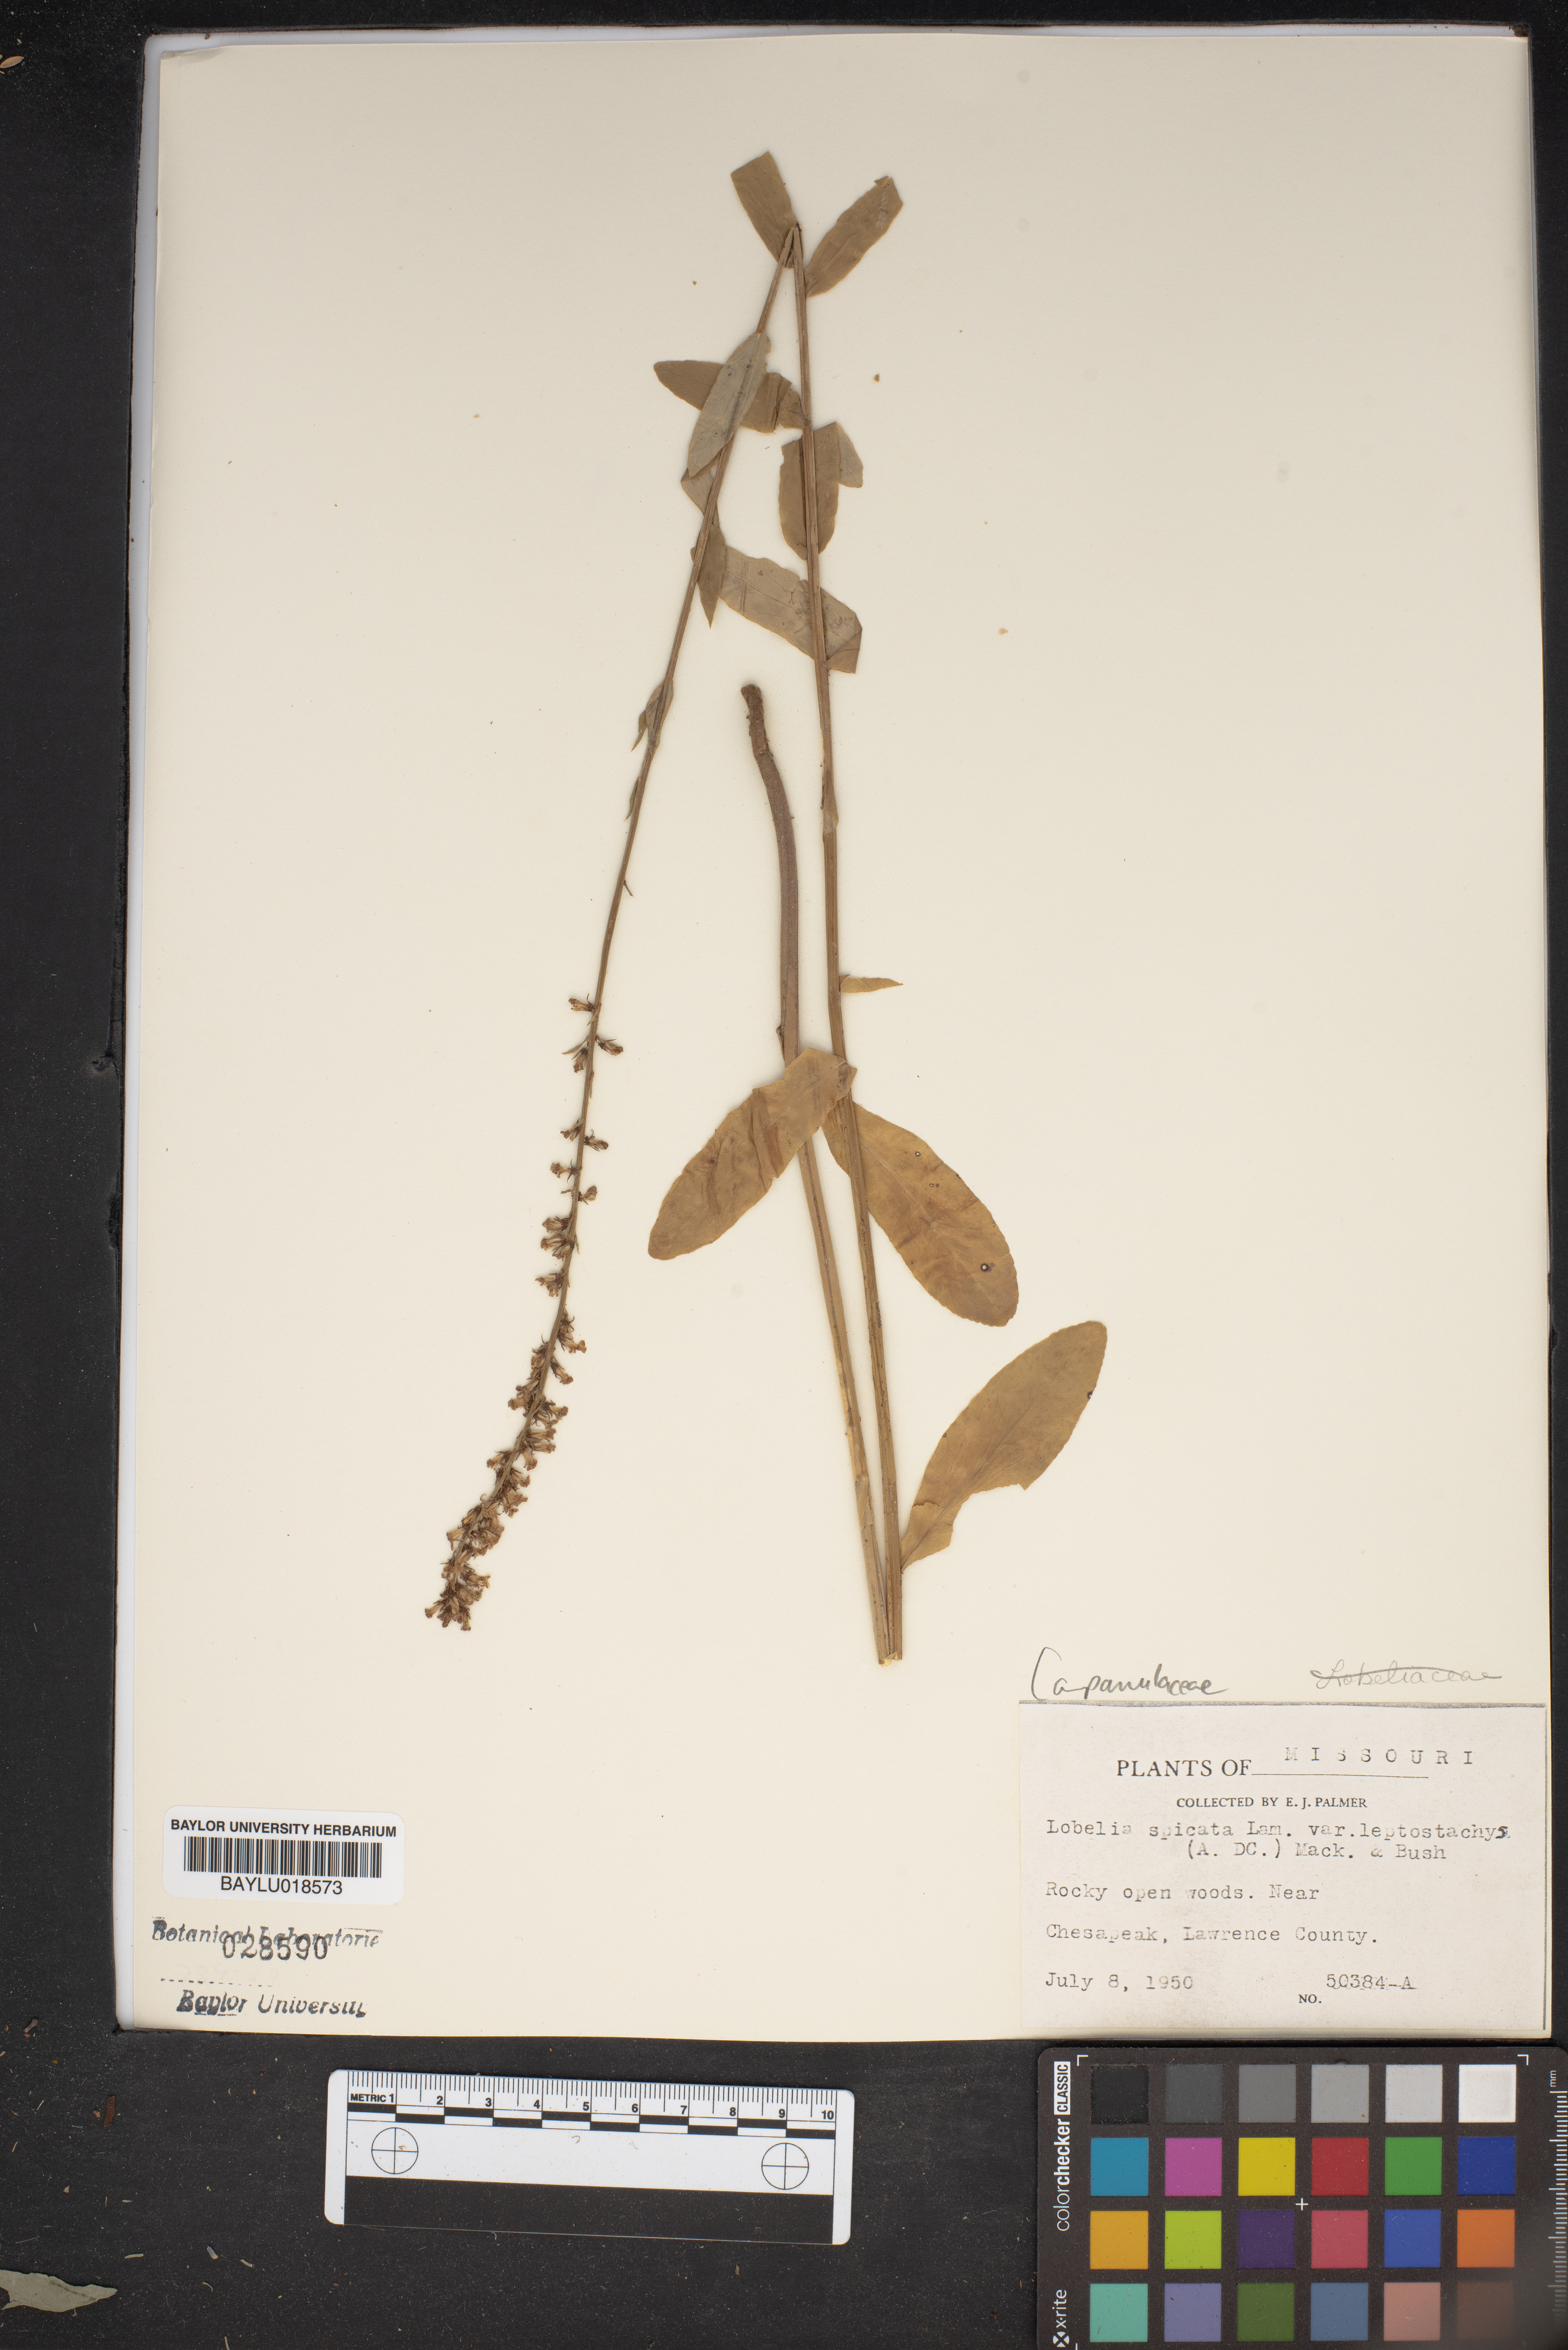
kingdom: Plantae
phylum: Tracheophyta
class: Magnoliopsida
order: Asterales
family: Campanulaceae
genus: Lobelia
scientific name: Lobelia spicata
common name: Pale-spike lobelia
